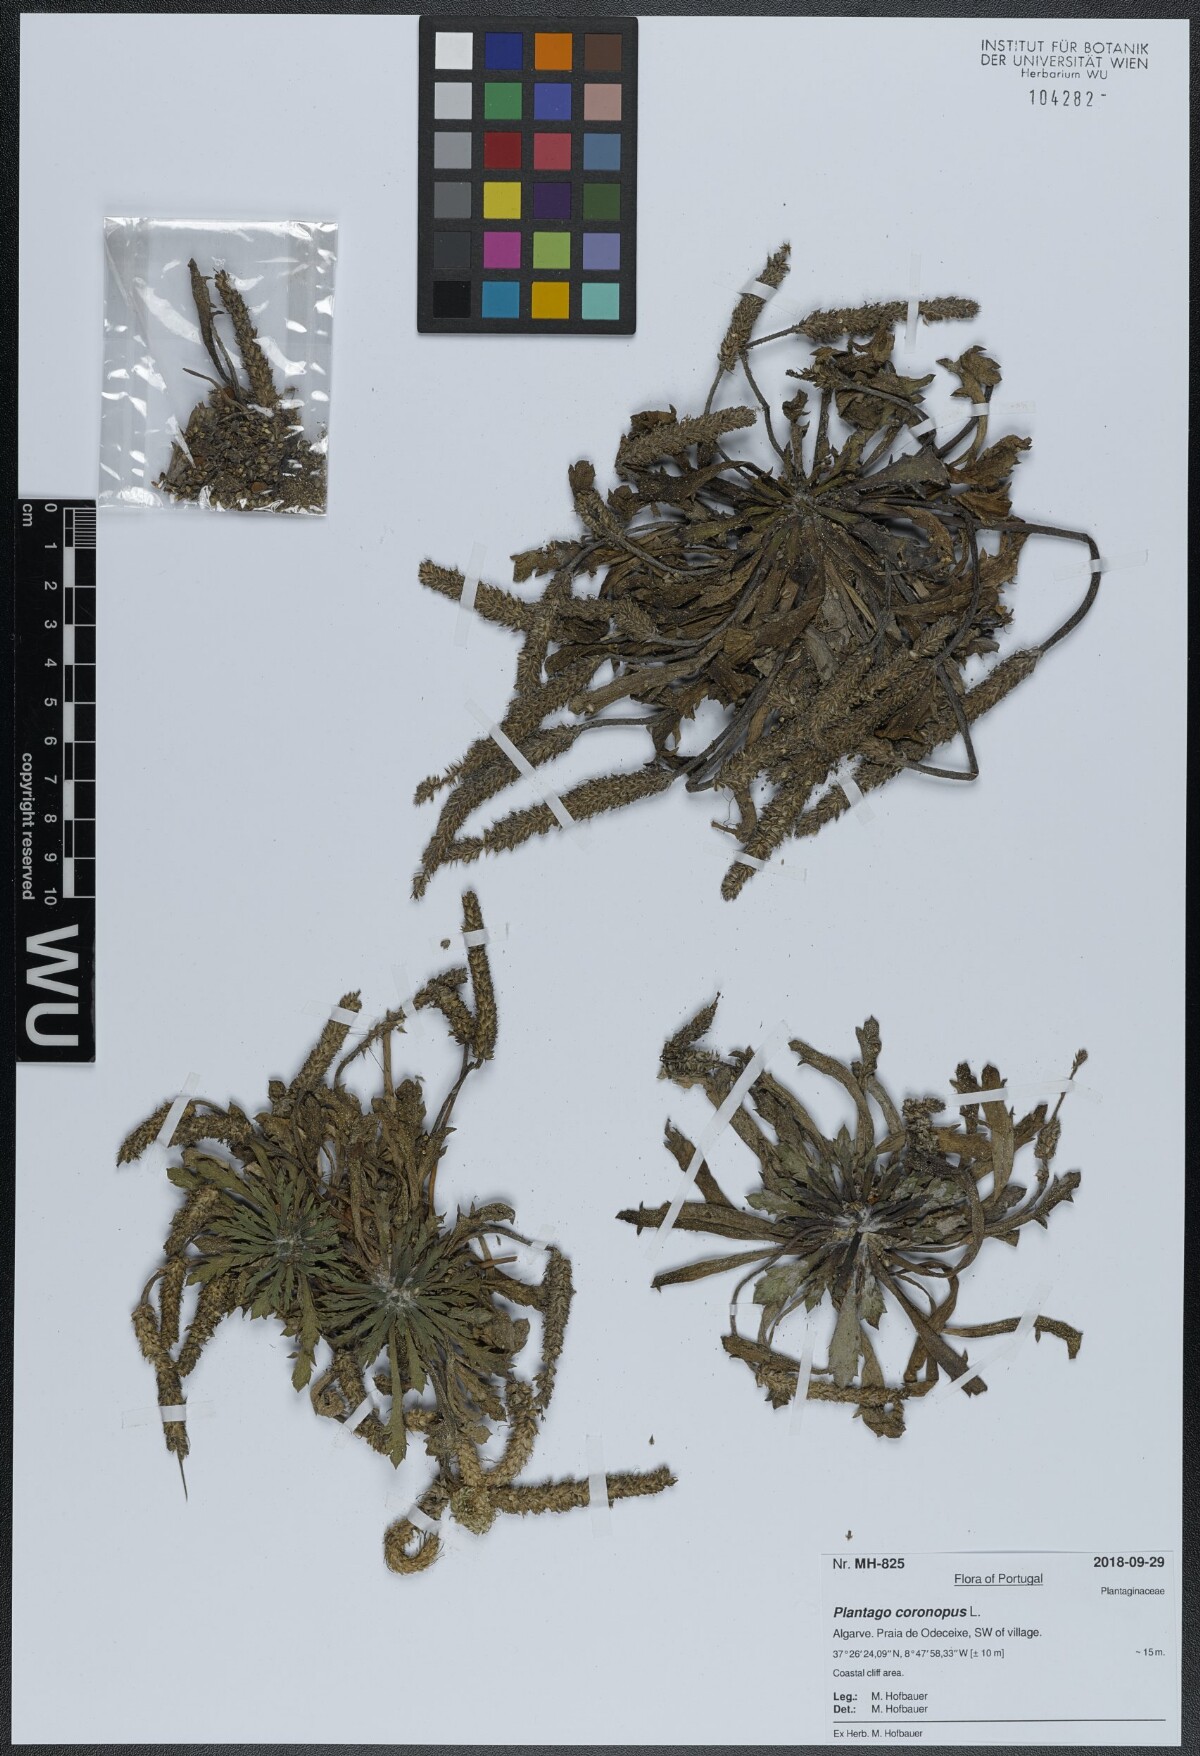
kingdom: Plantae
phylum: Tracheophyta
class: Magnoliopsida
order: Lamiales
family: Plantaginaceae
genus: Plantago
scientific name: Plantago coronopus
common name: Buck's-horn plantain
